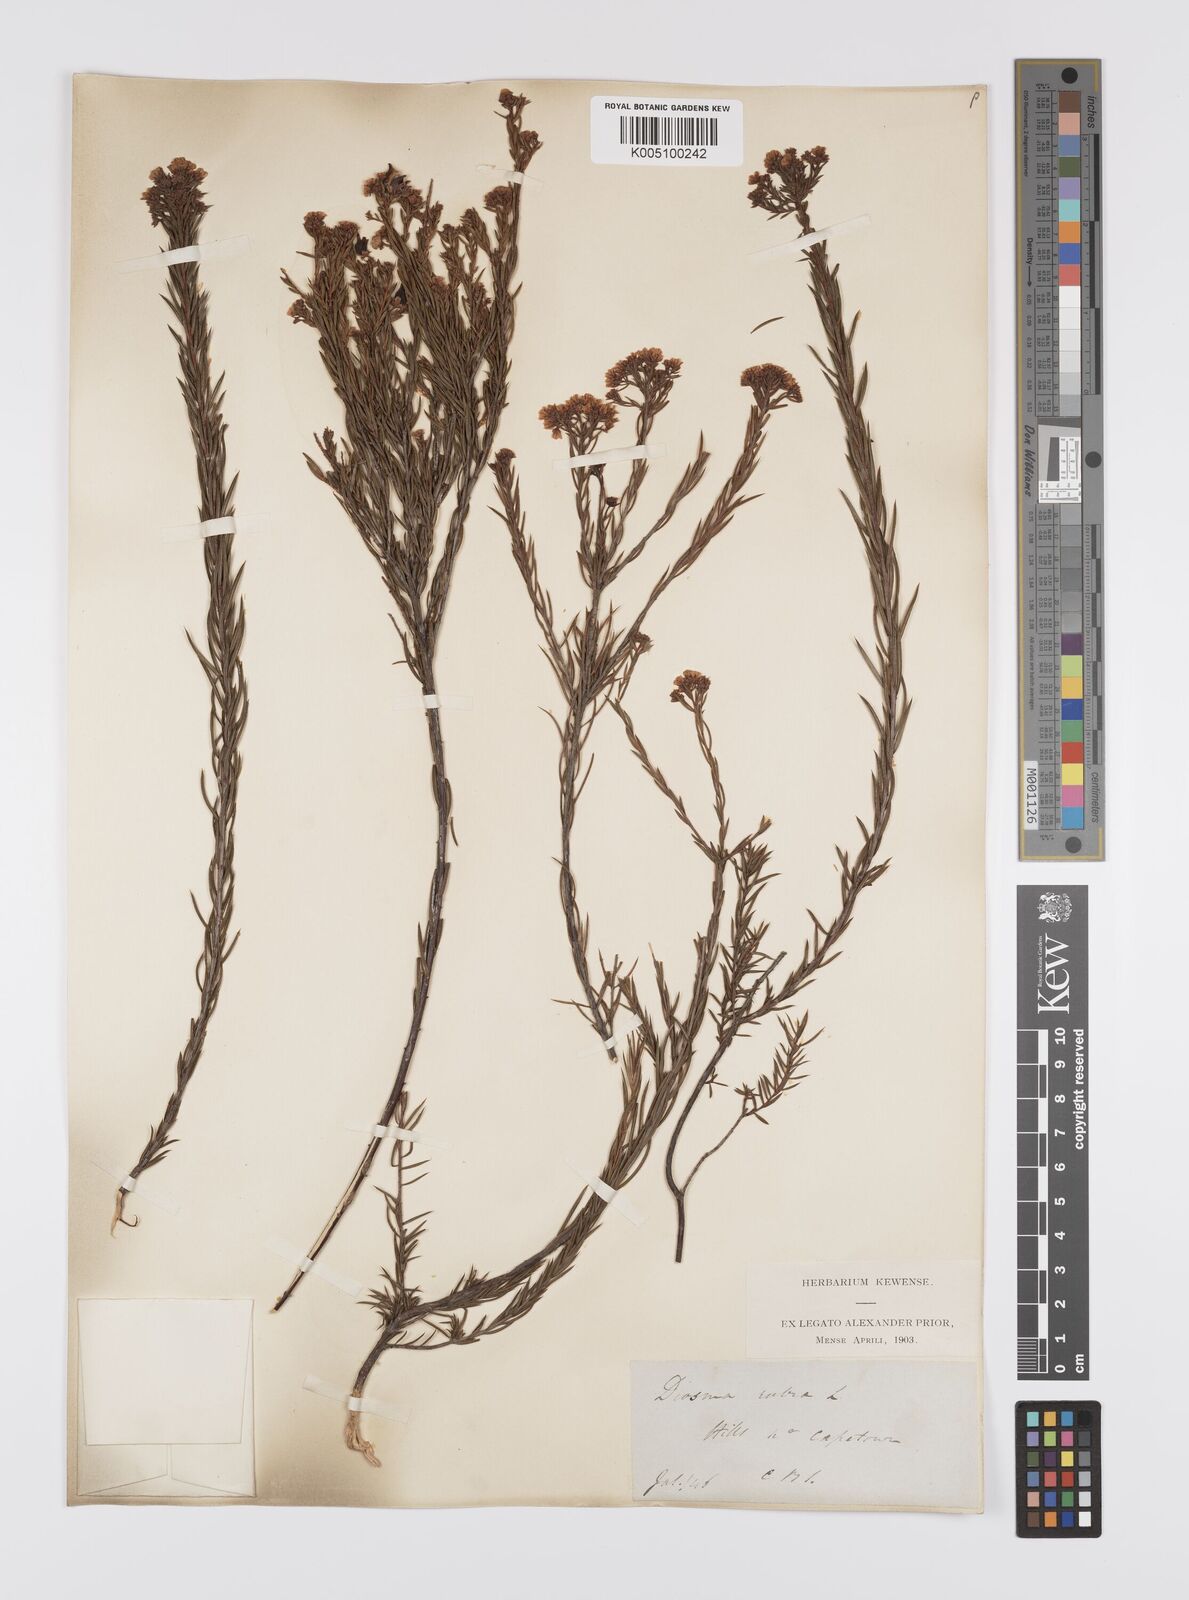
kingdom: Plantae
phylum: Tracheophyta
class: Magnoliopsida
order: Sapindales
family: Rutaceae
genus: Diosma
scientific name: Diosma hirsuta
